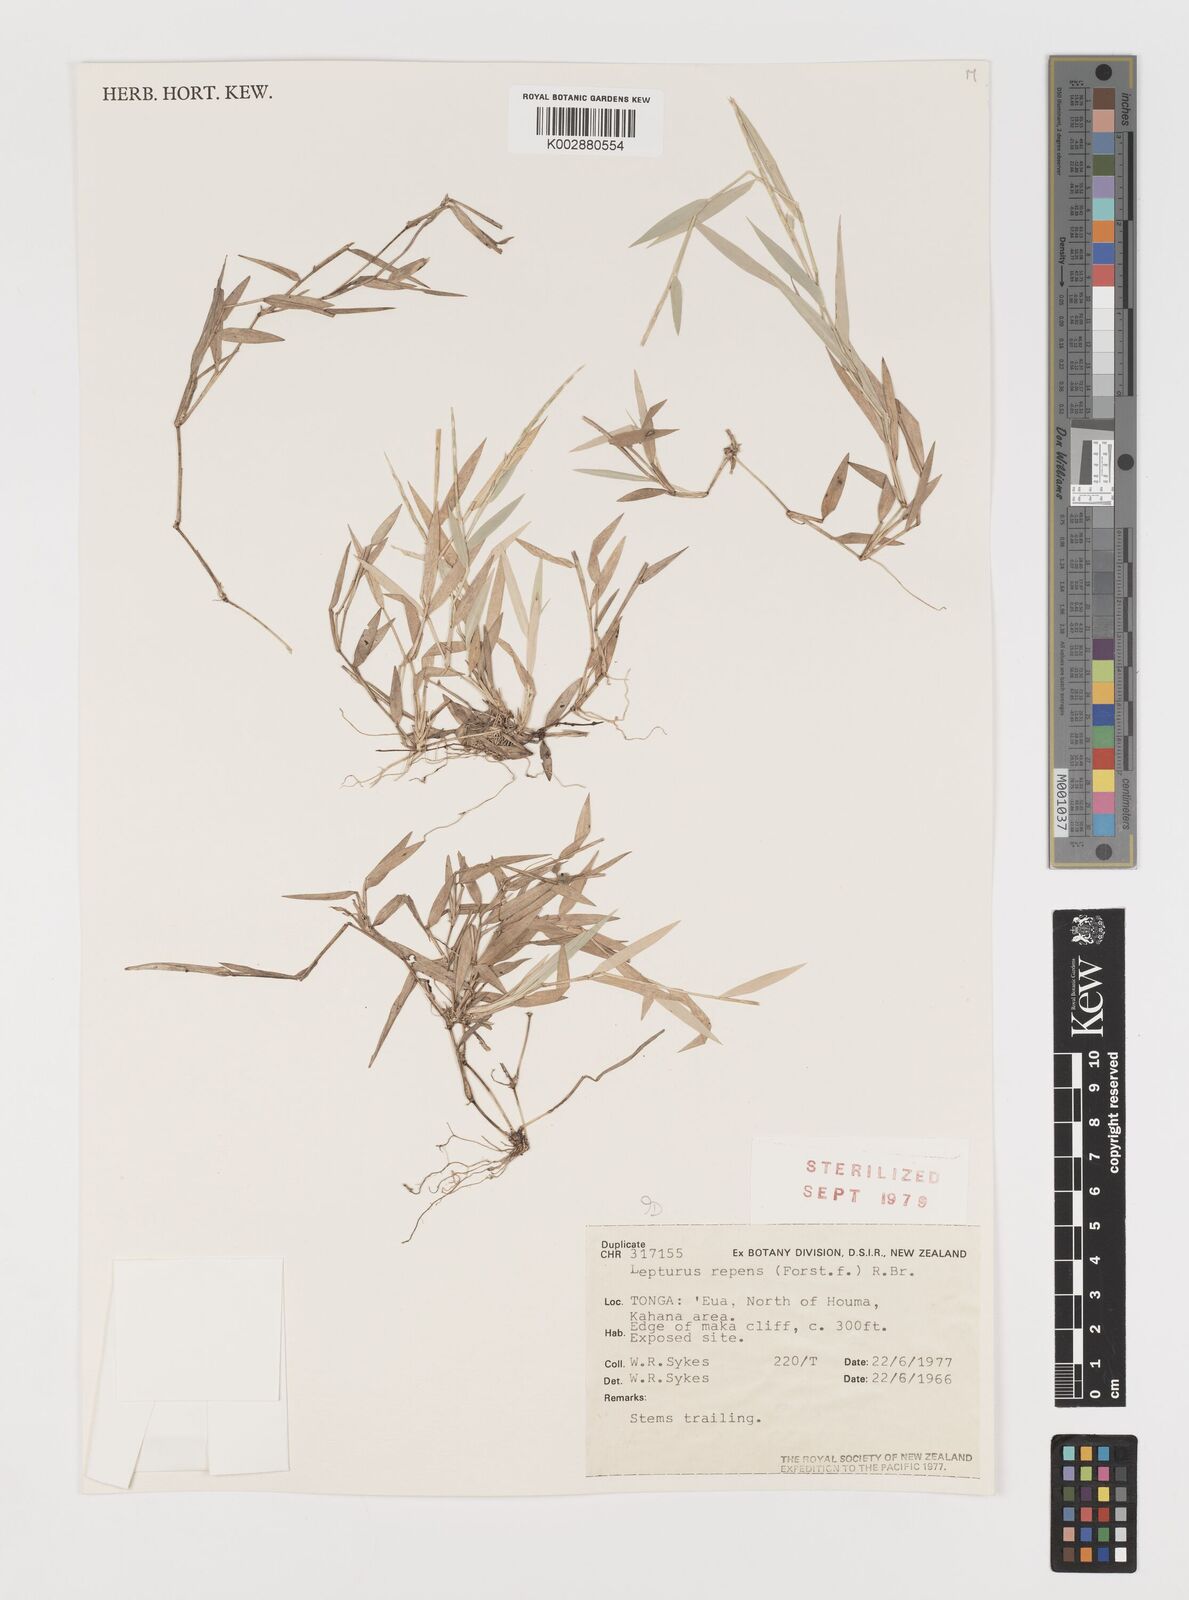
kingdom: Plantae
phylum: Tracheophyta
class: Liliopsida
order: Poales
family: Poaceae
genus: Lepturus
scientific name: Lepturus repens
